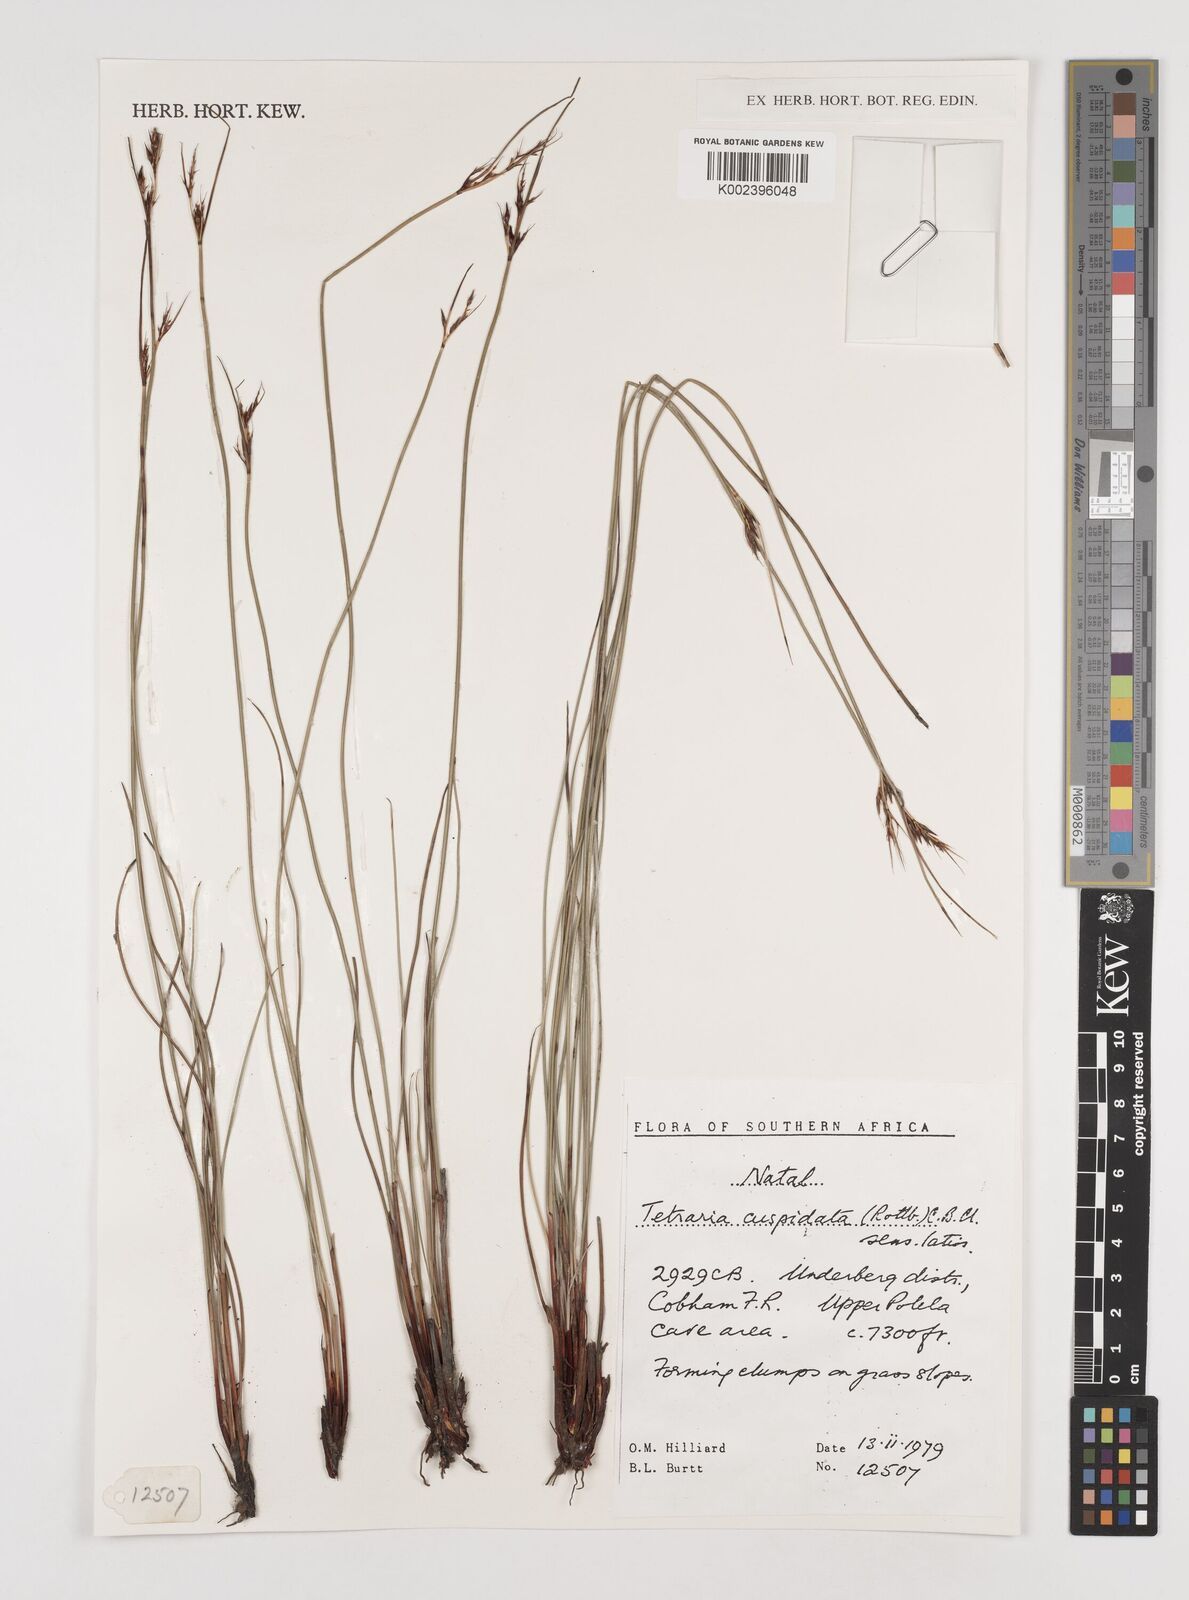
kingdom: Plantae
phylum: Tracheophyta
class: Liliopsida
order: Poales
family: Cyperaceae
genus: Schoenus
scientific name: Schoenus cuspidatus
